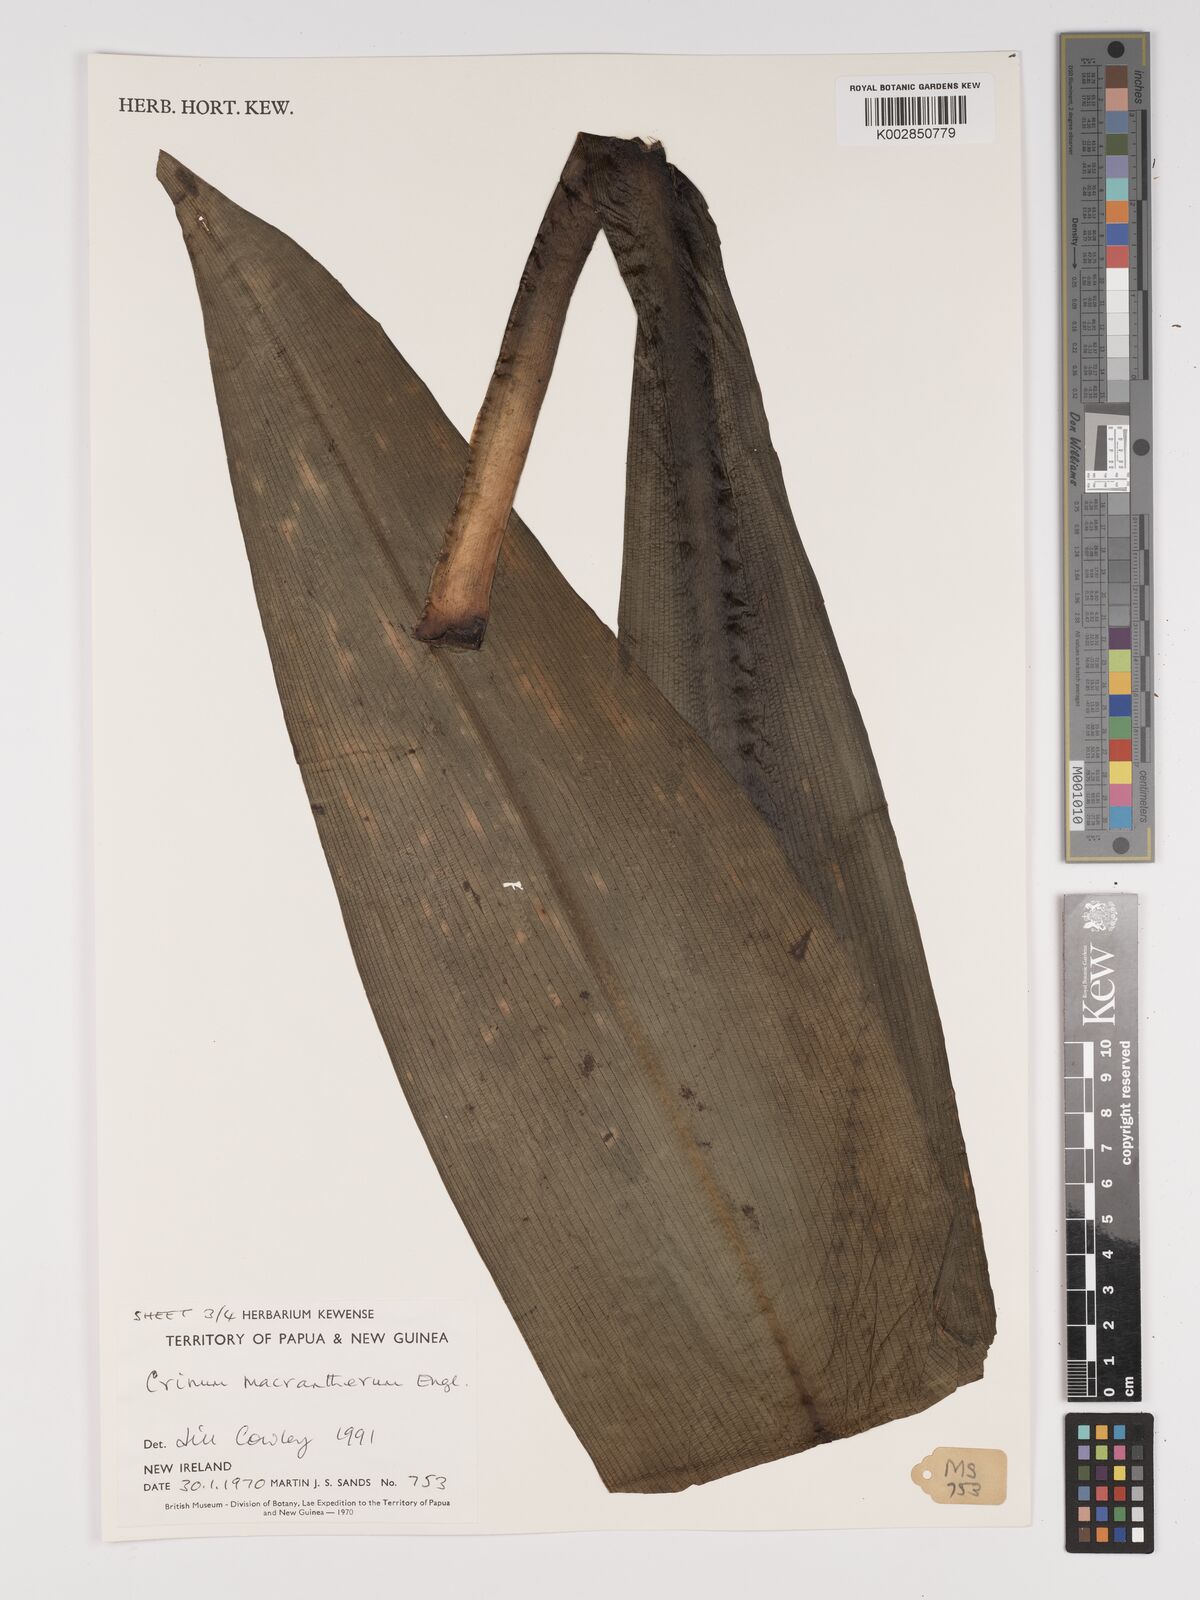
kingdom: Plantae
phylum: Tracheophyta
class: Liliopsida
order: Asparagales
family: Amaryllidaceae
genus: Crinum
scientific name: Crinum asiaticum
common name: Poisonbulb
